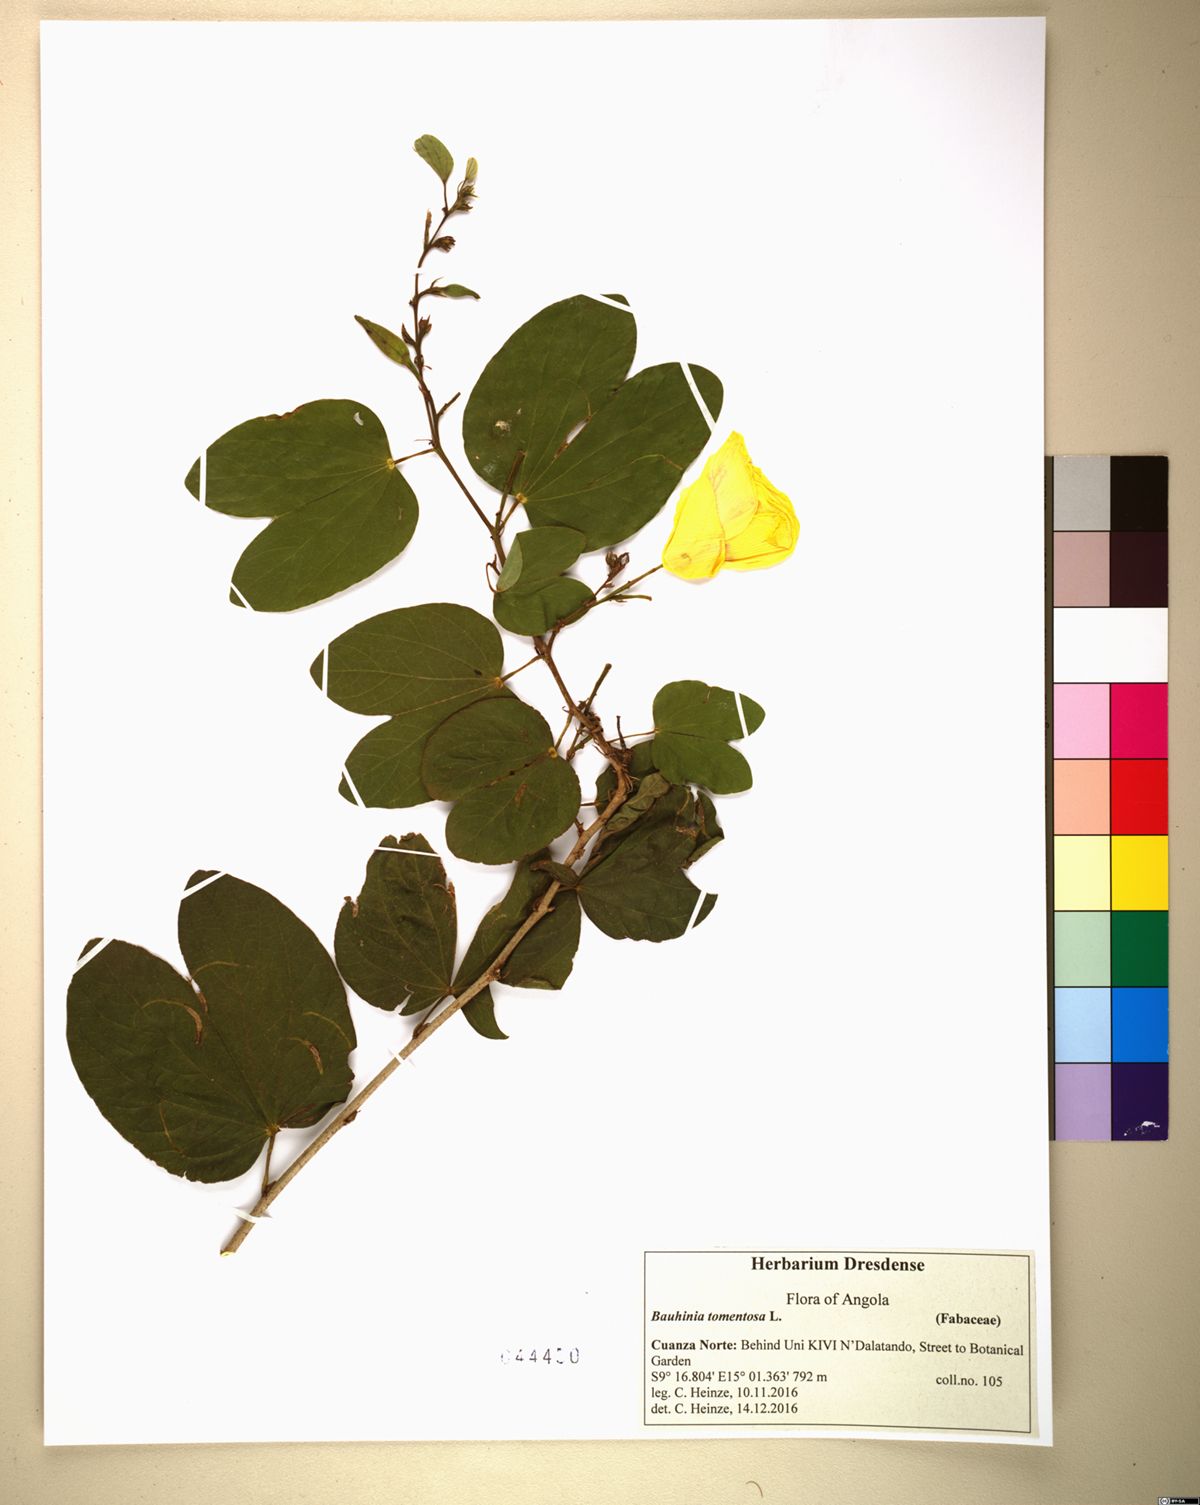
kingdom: Plantae
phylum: Tracheophyta
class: Magnoliopsida
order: Fabales
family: Fabaceae
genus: Bauhinia
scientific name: Bauhinia tomentosa
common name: Bell bauhinia
